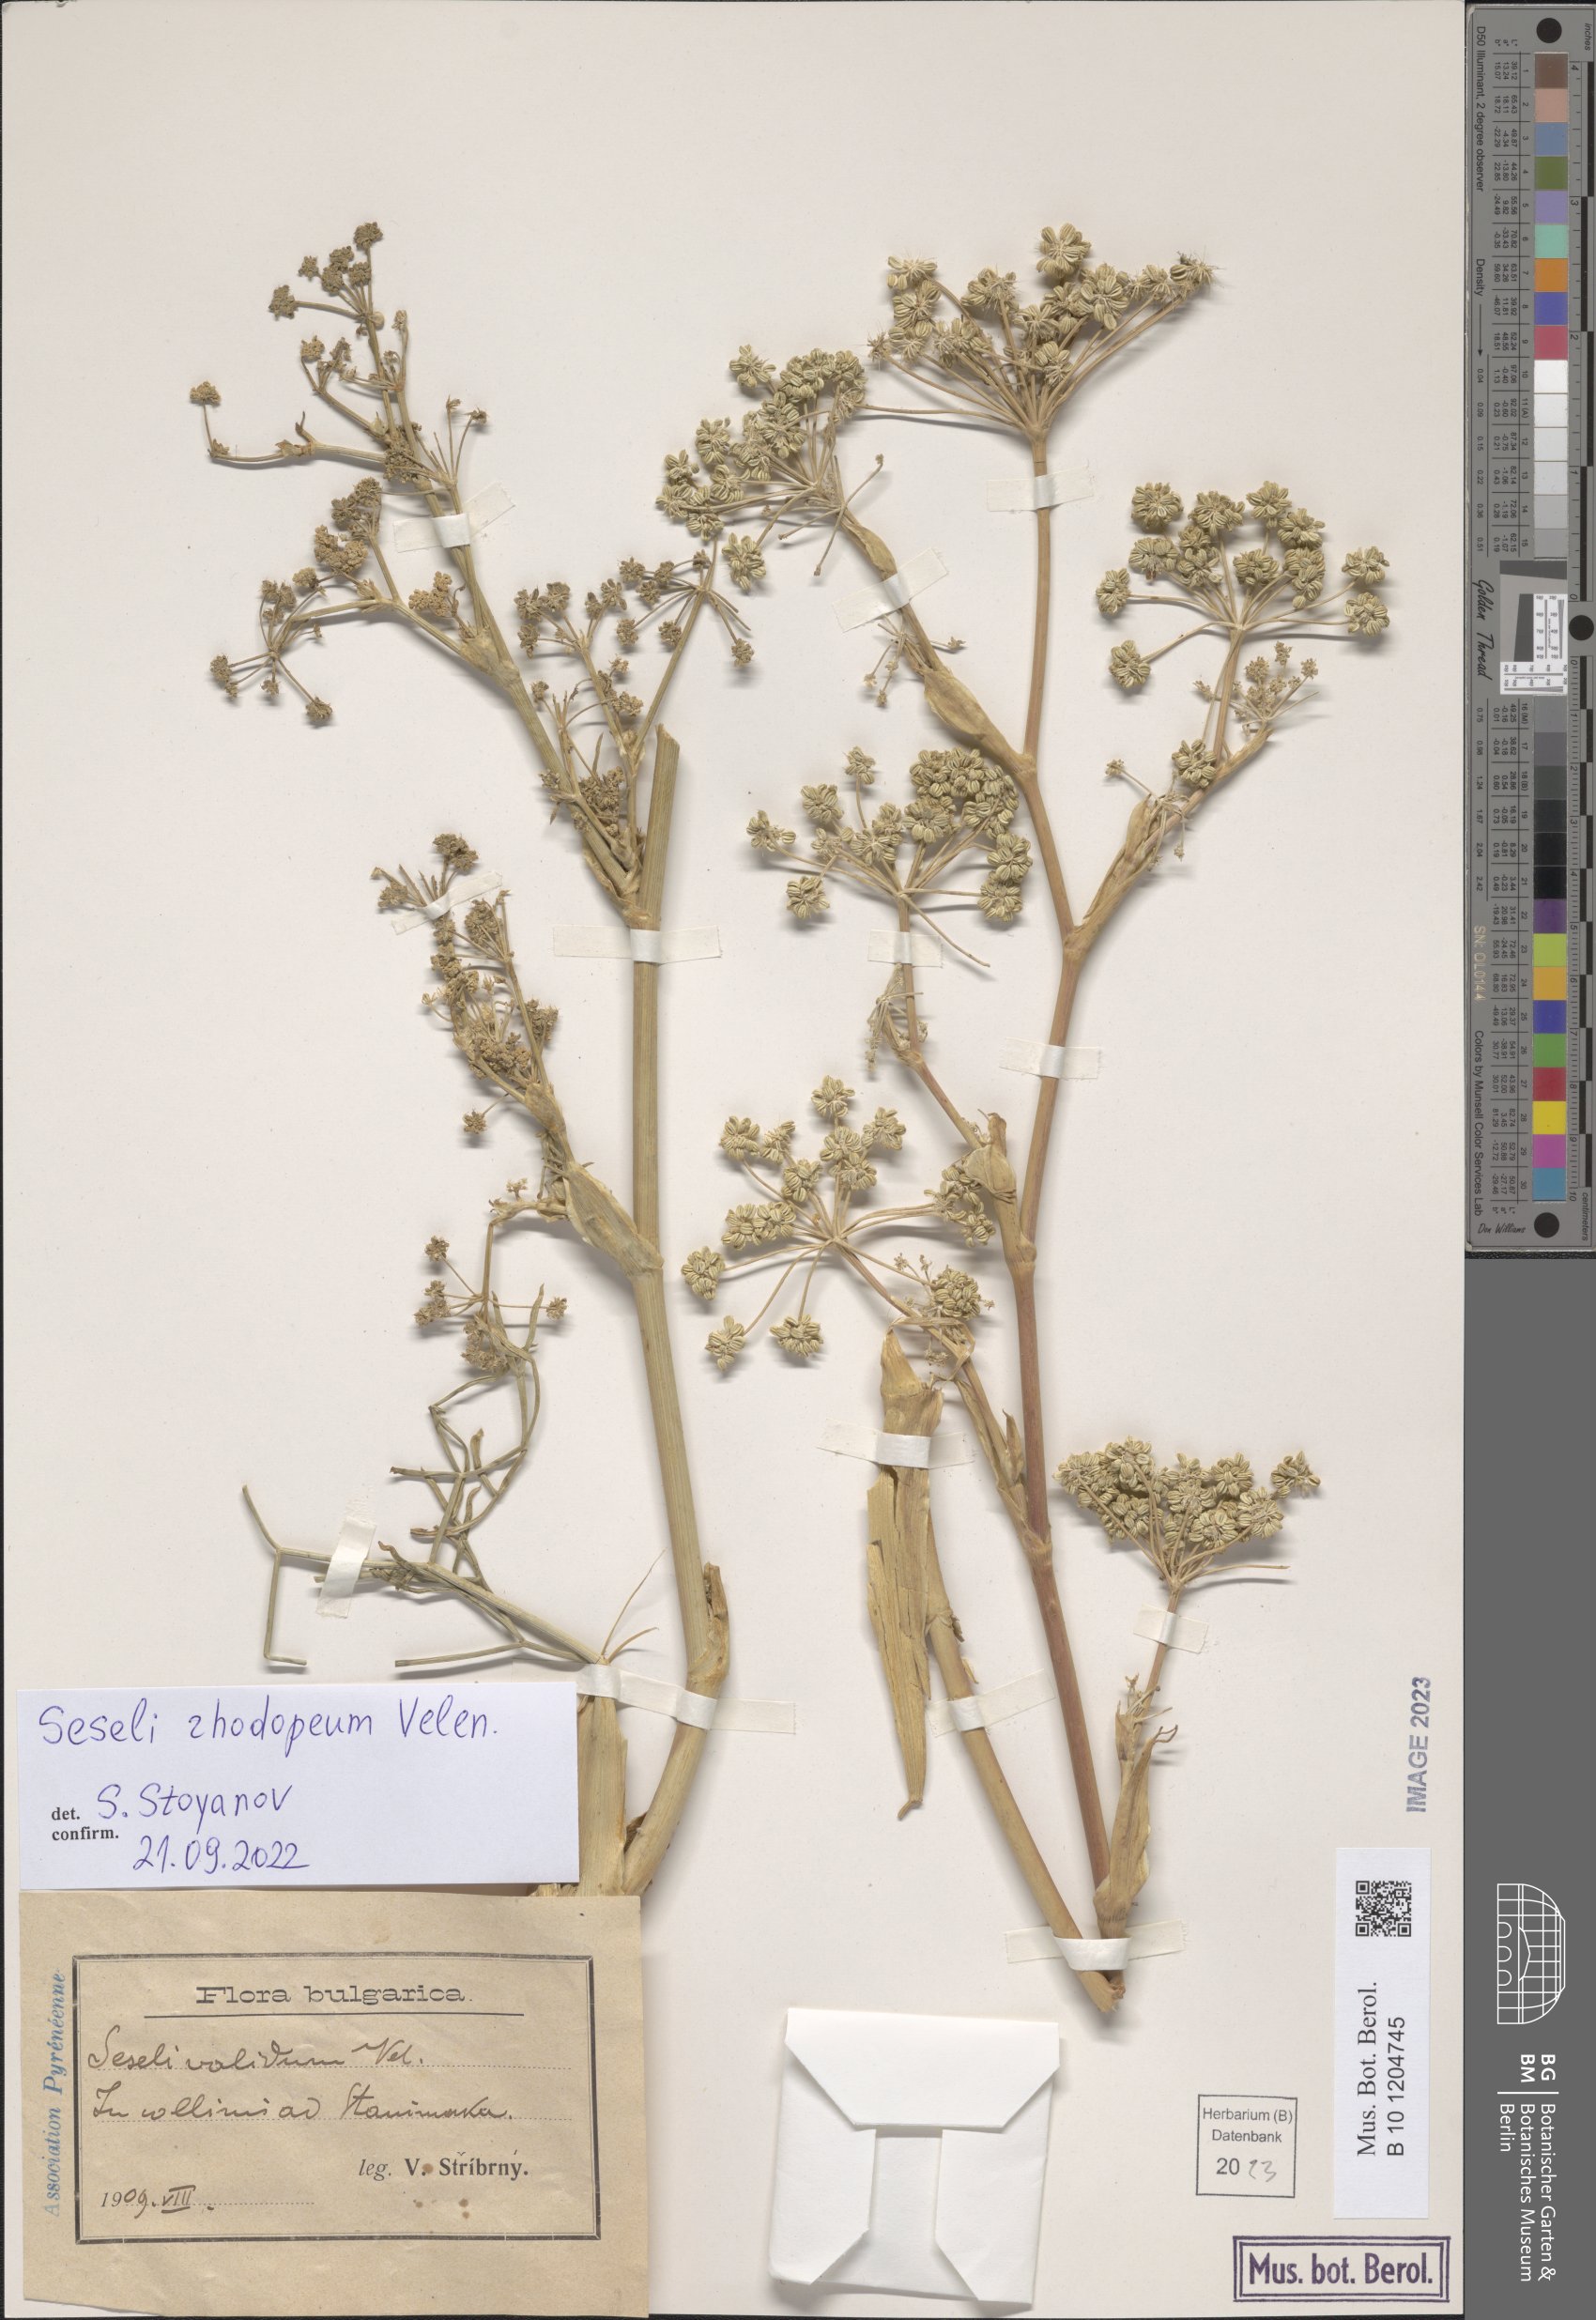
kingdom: Plantae
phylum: Tracheophyta
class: Magnoliopsida
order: Apiales
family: Apiaceae
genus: Seseli
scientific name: Seseli rhodopeum
